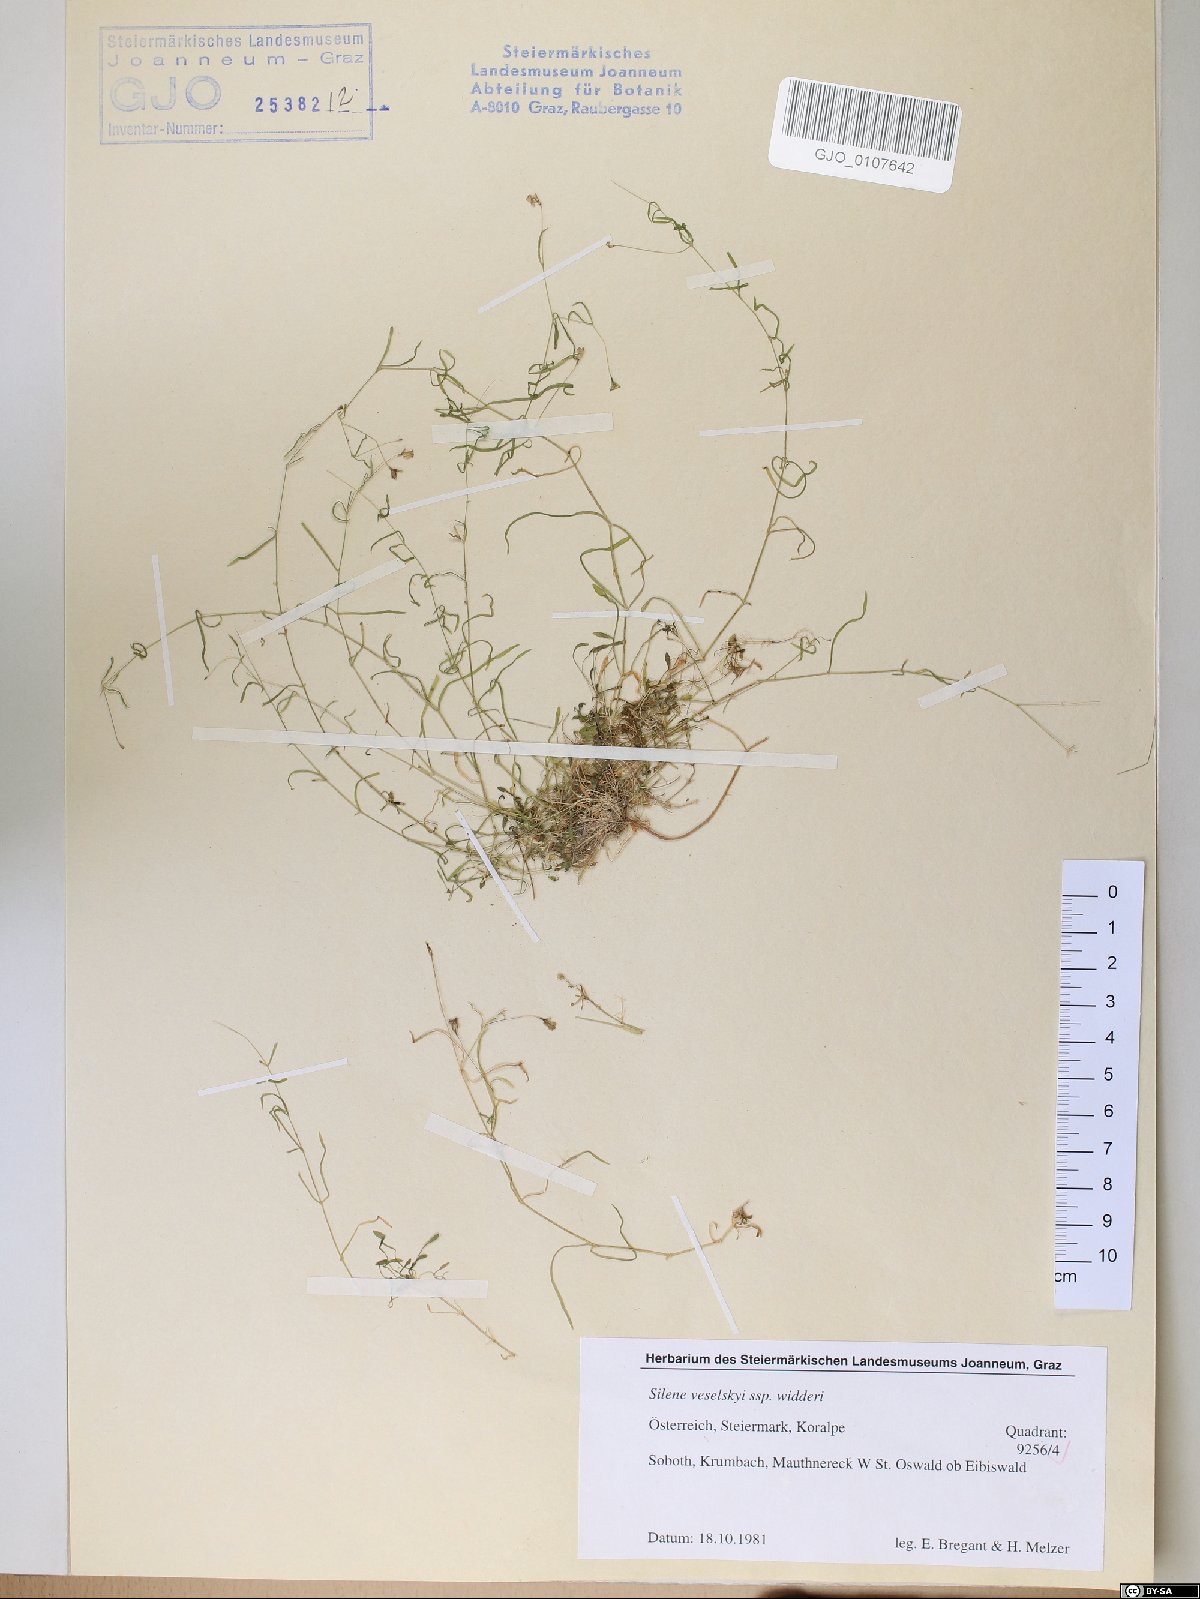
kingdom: Plantae
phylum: Tracheophyta
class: Magnoliopsida
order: Caryophyllales
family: Caryophyllaceae
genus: Heliosperma
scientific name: Heliosperma veselskyi
